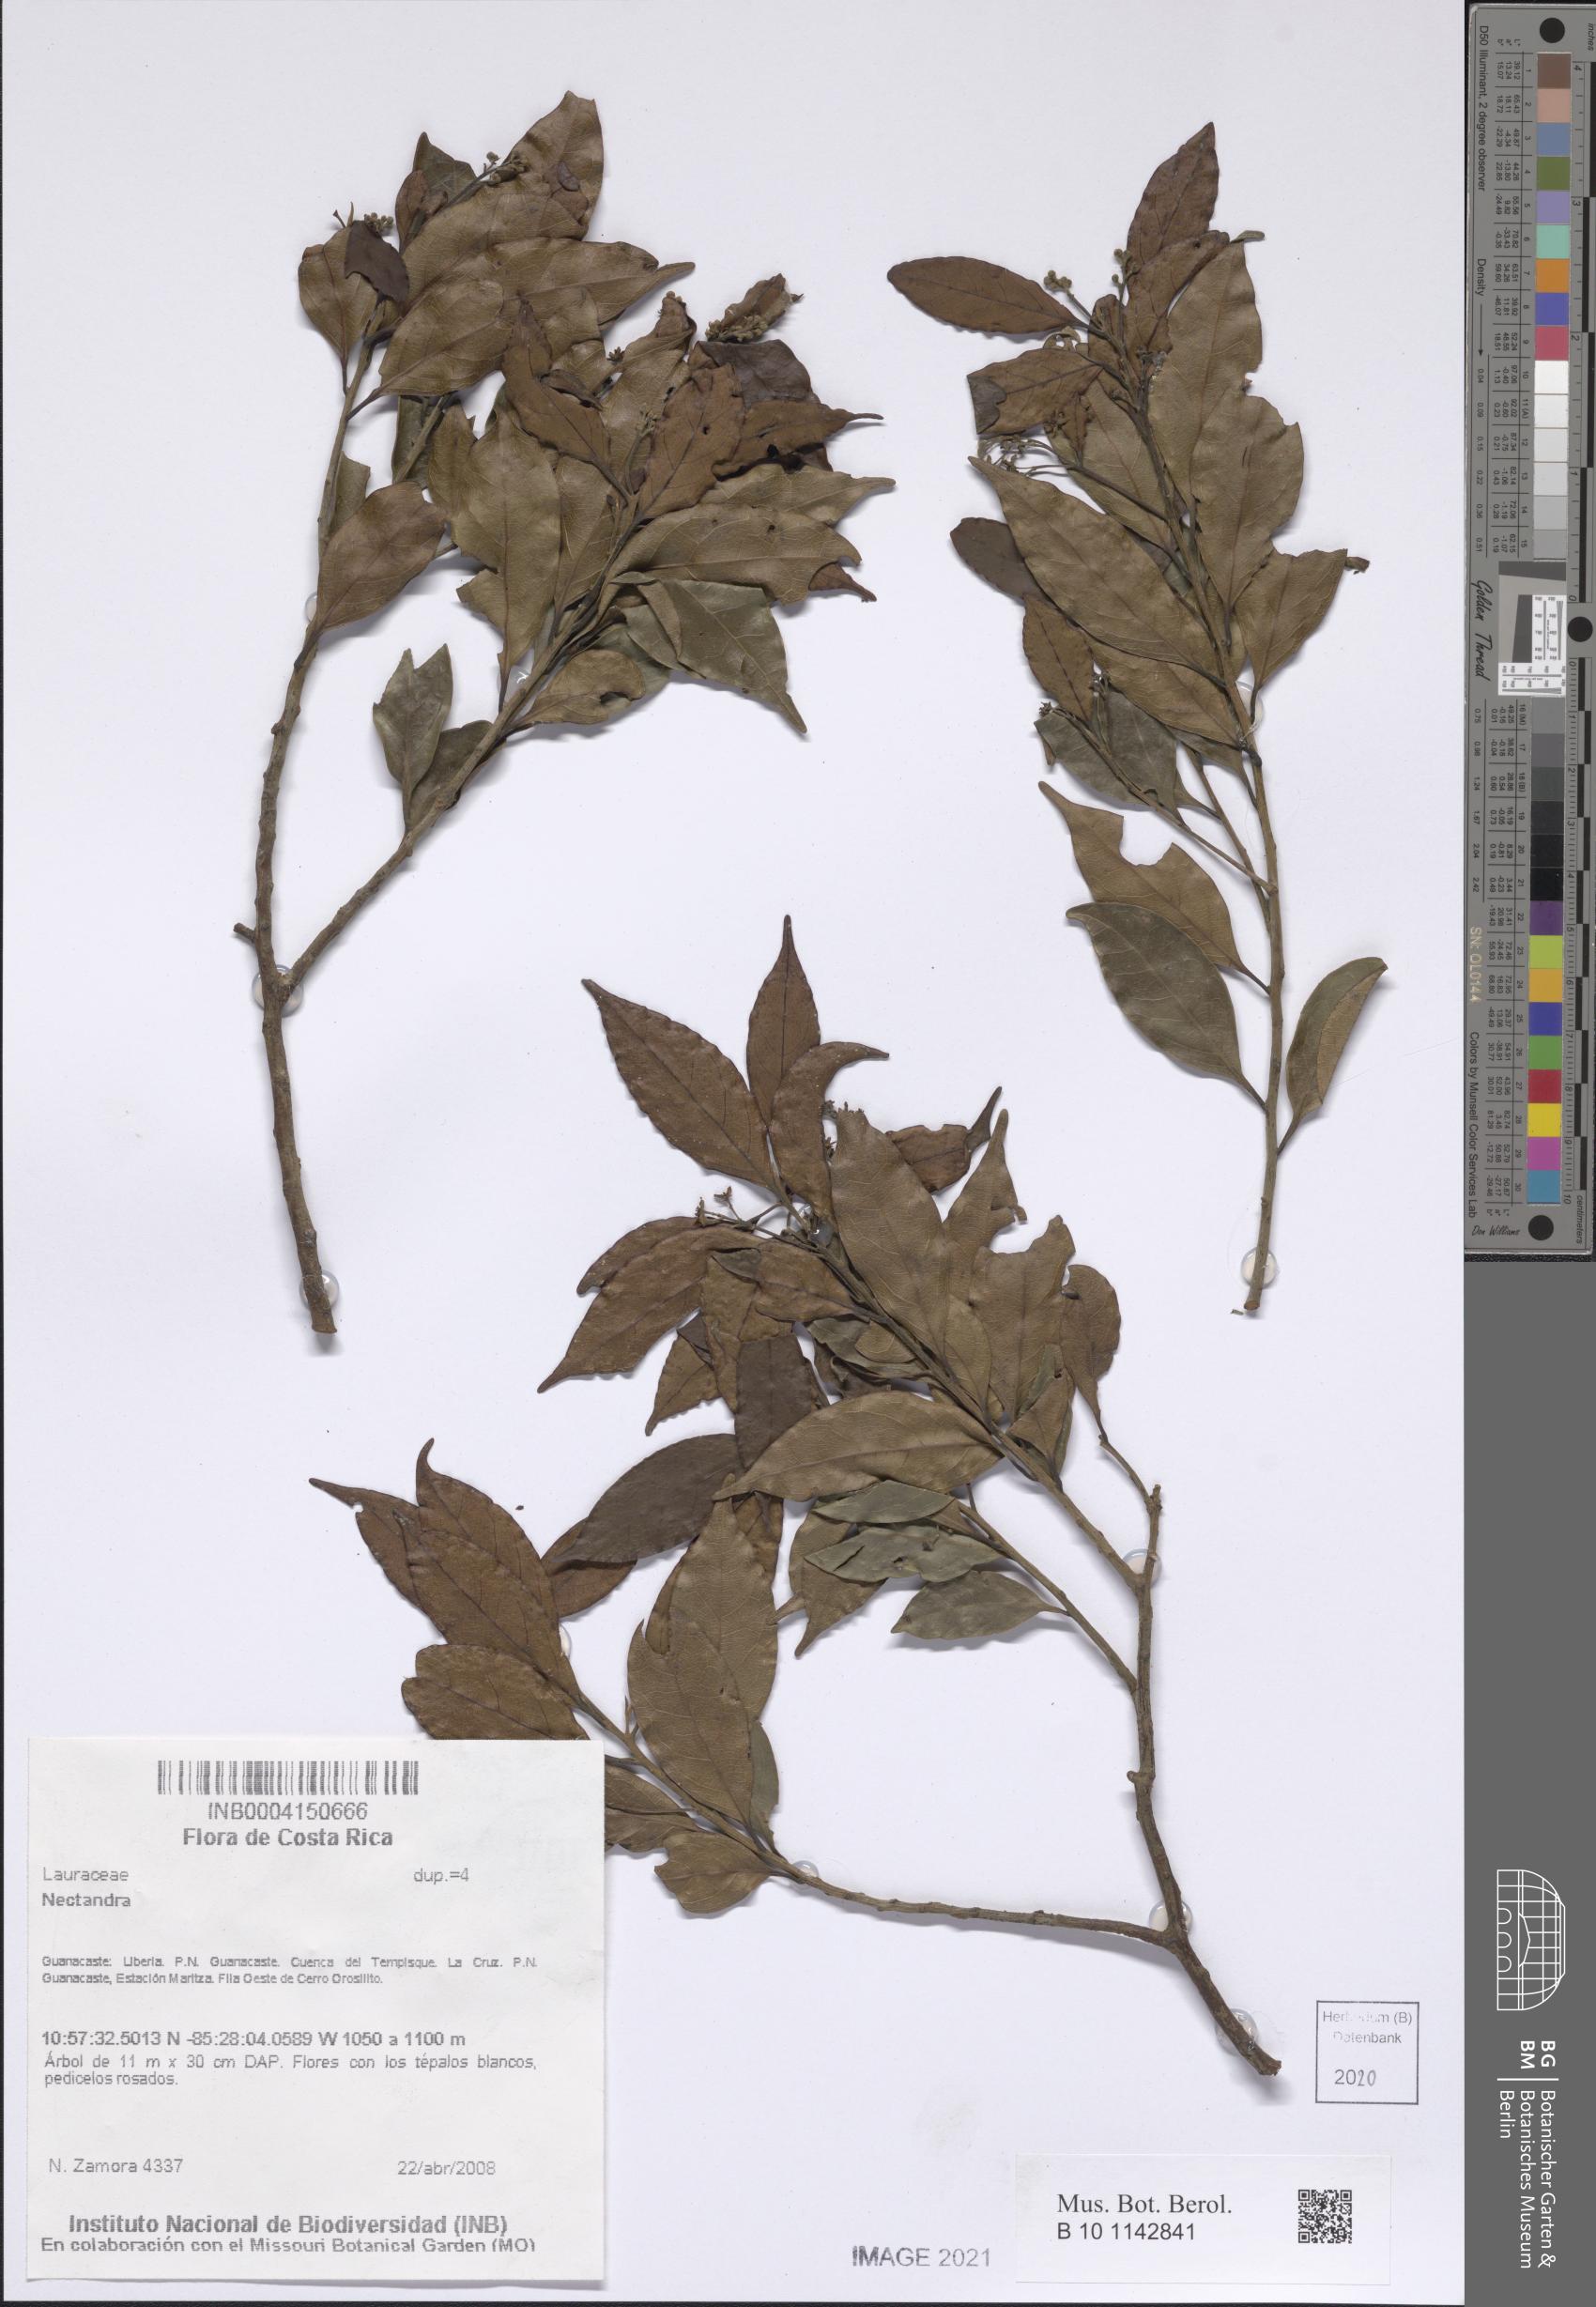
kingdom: Plantae
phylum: Tracheophyta
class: Magnoliopsida
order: Laurales
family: Lauraceae
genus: Nectandra
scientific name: Nectandra
